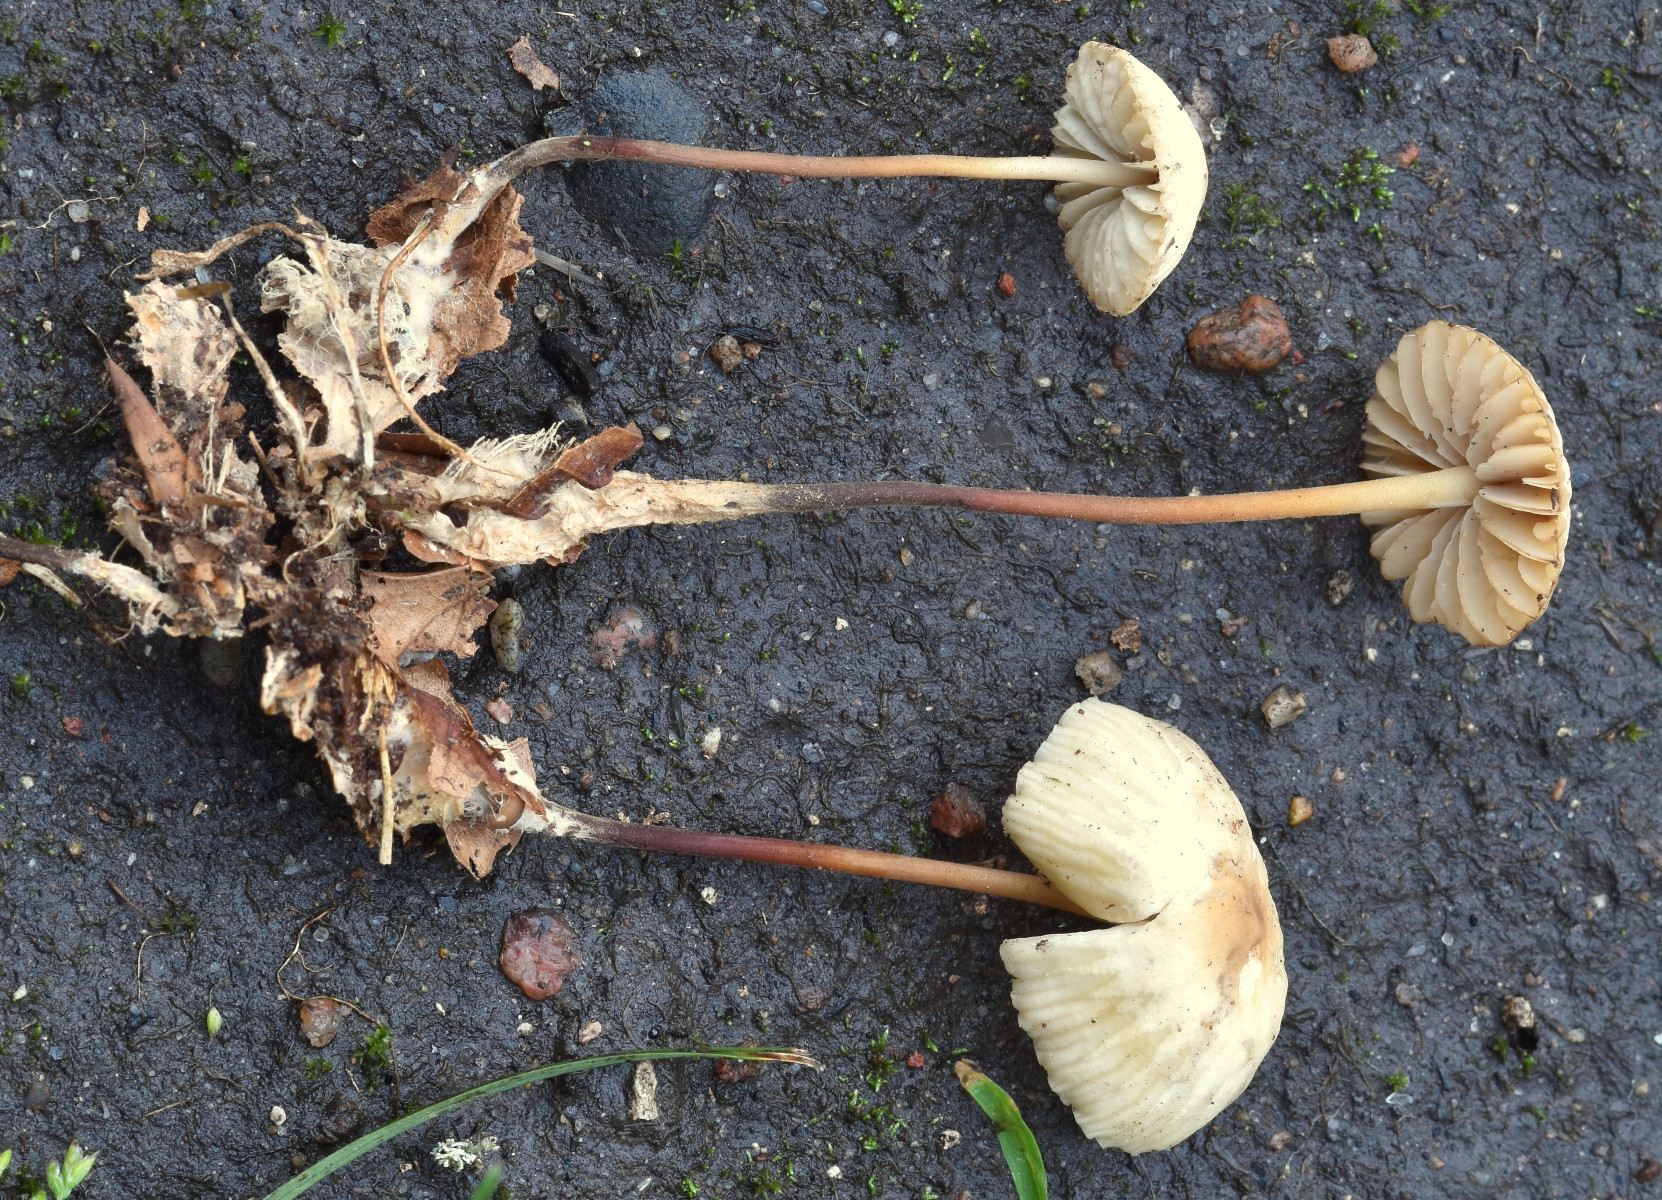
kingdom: Fungi
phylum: Basidiomycota
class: Agaricomycetes
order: Agaricales
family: Marasmiaceae
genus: Marasmius
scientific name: Marasmius torquescens
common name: filtfodet bruskhat
